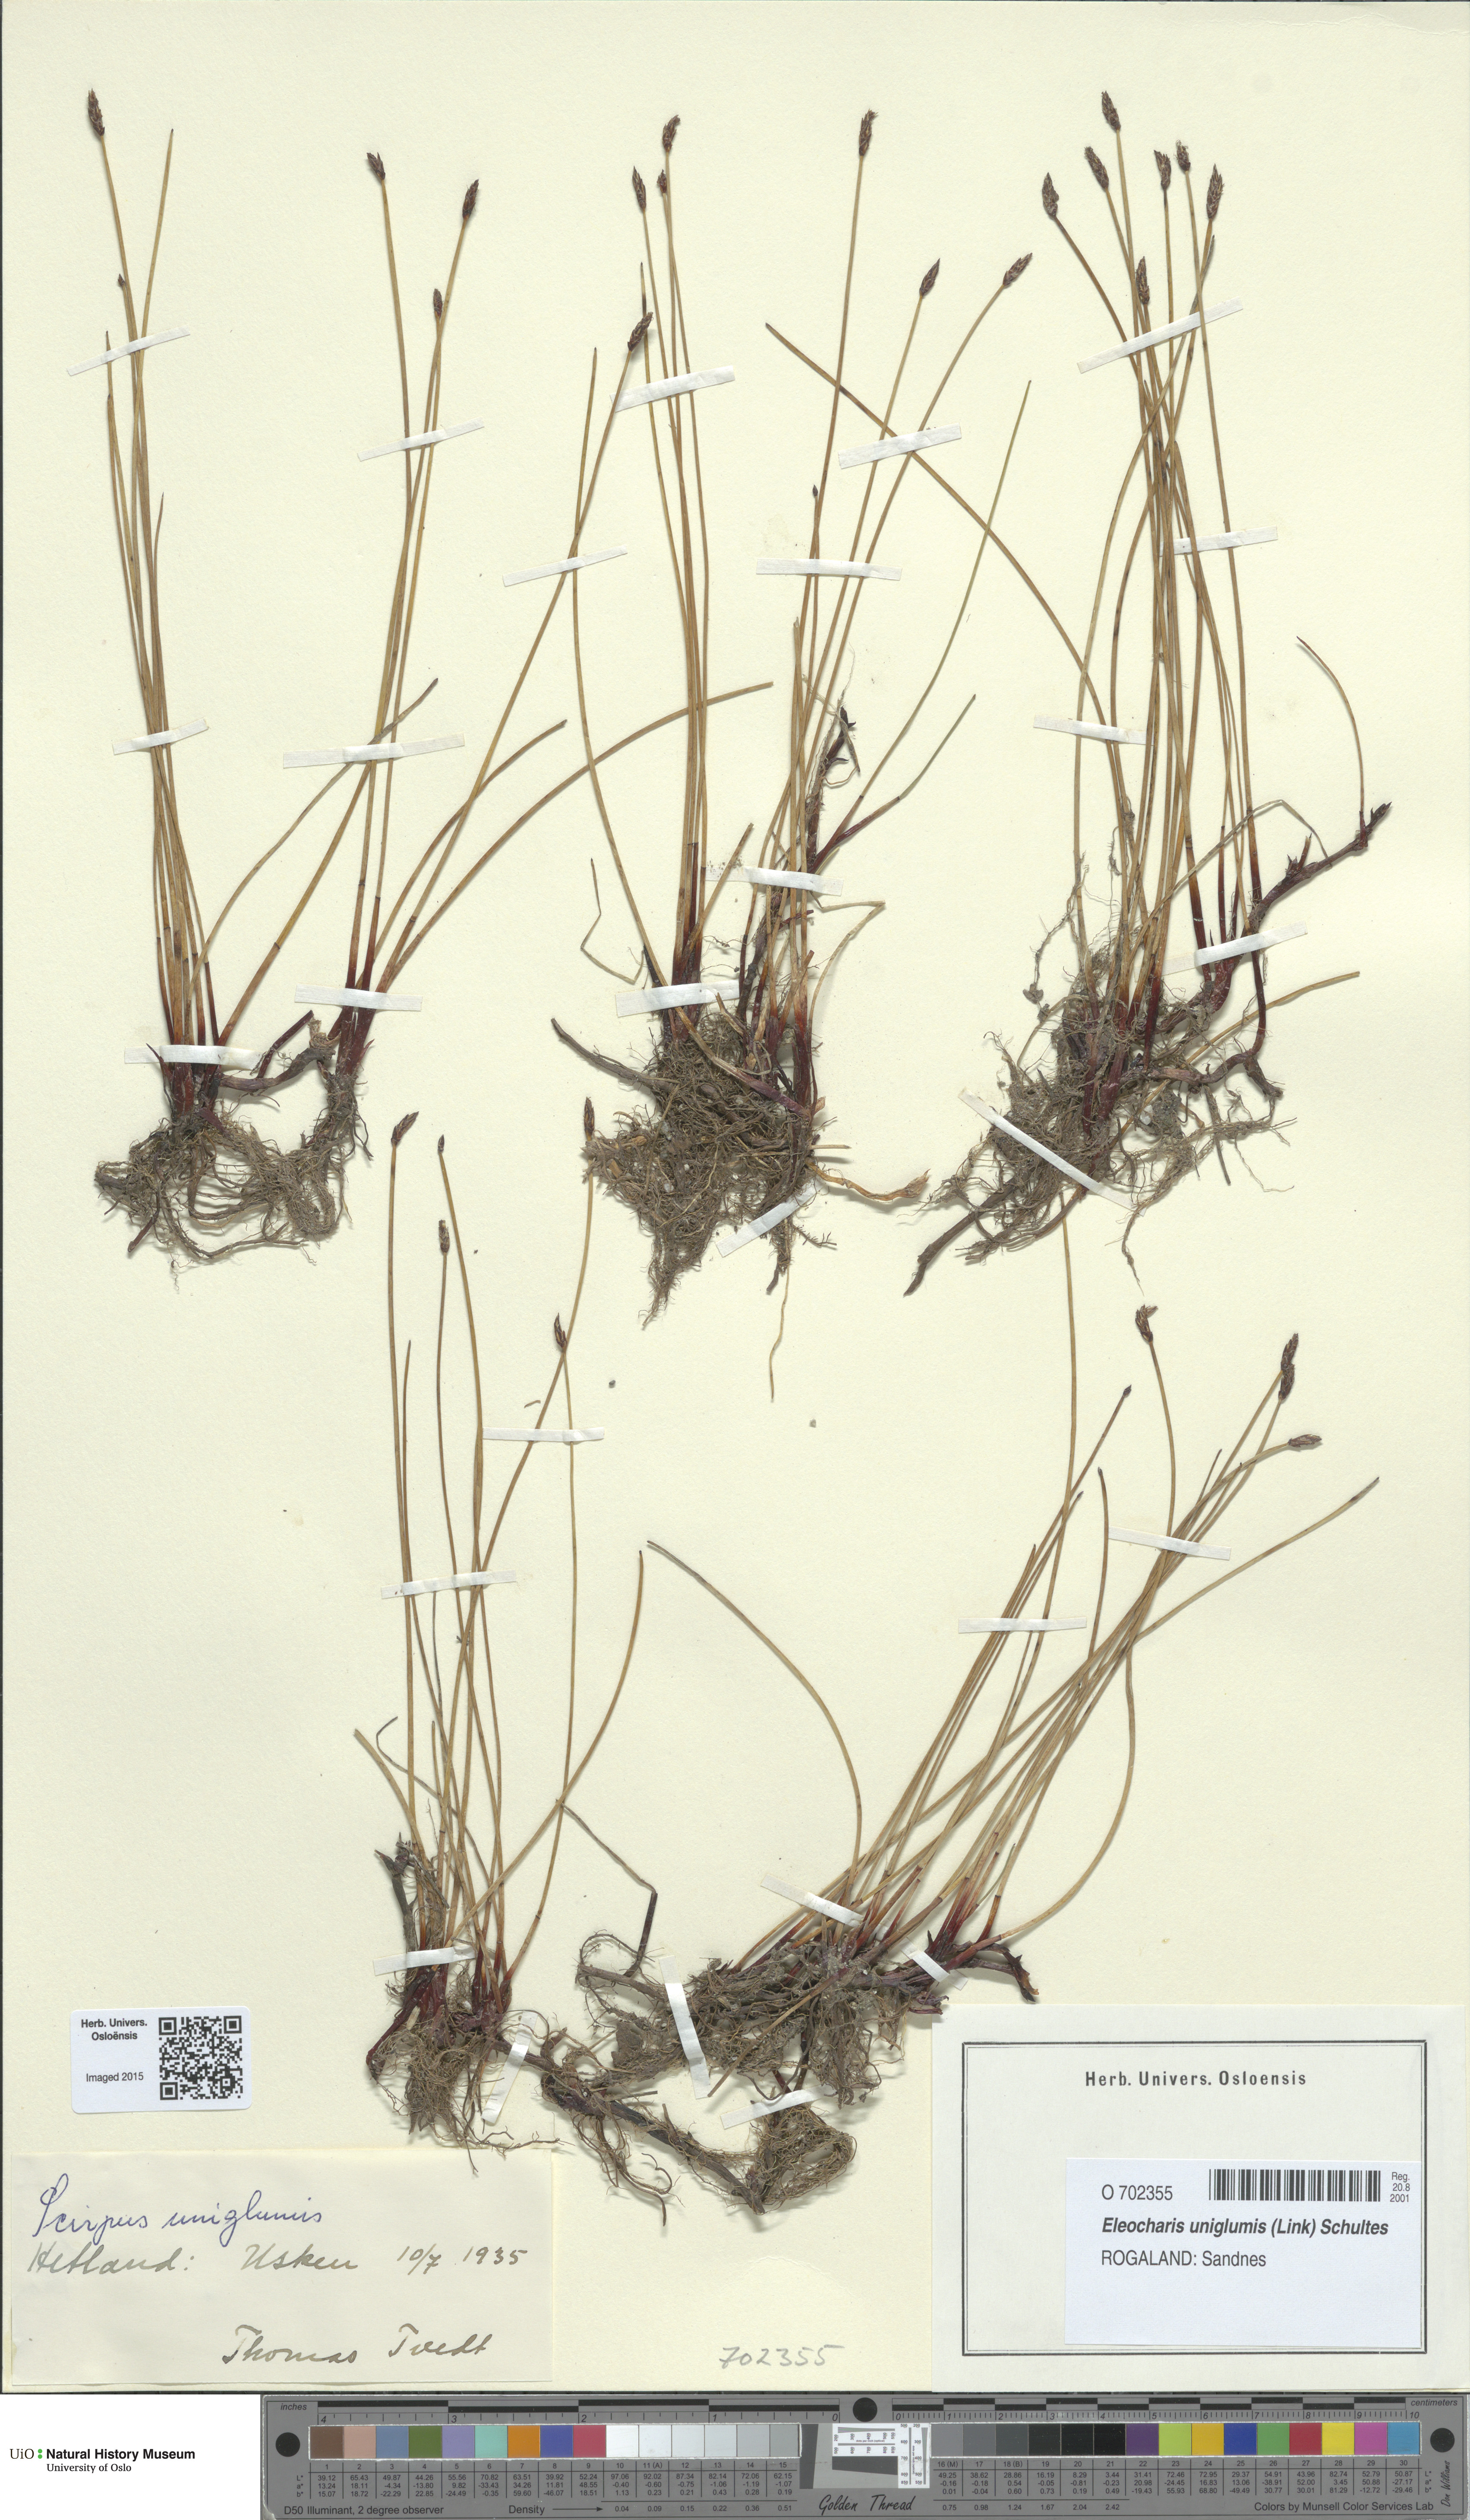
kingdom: Plantae
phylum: Tracheophyta
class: Liliopsida
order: Poales
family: Cyperaceae
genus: Eleocharis
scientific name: Eleocharis uniglumis
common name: Slender spike-rush
